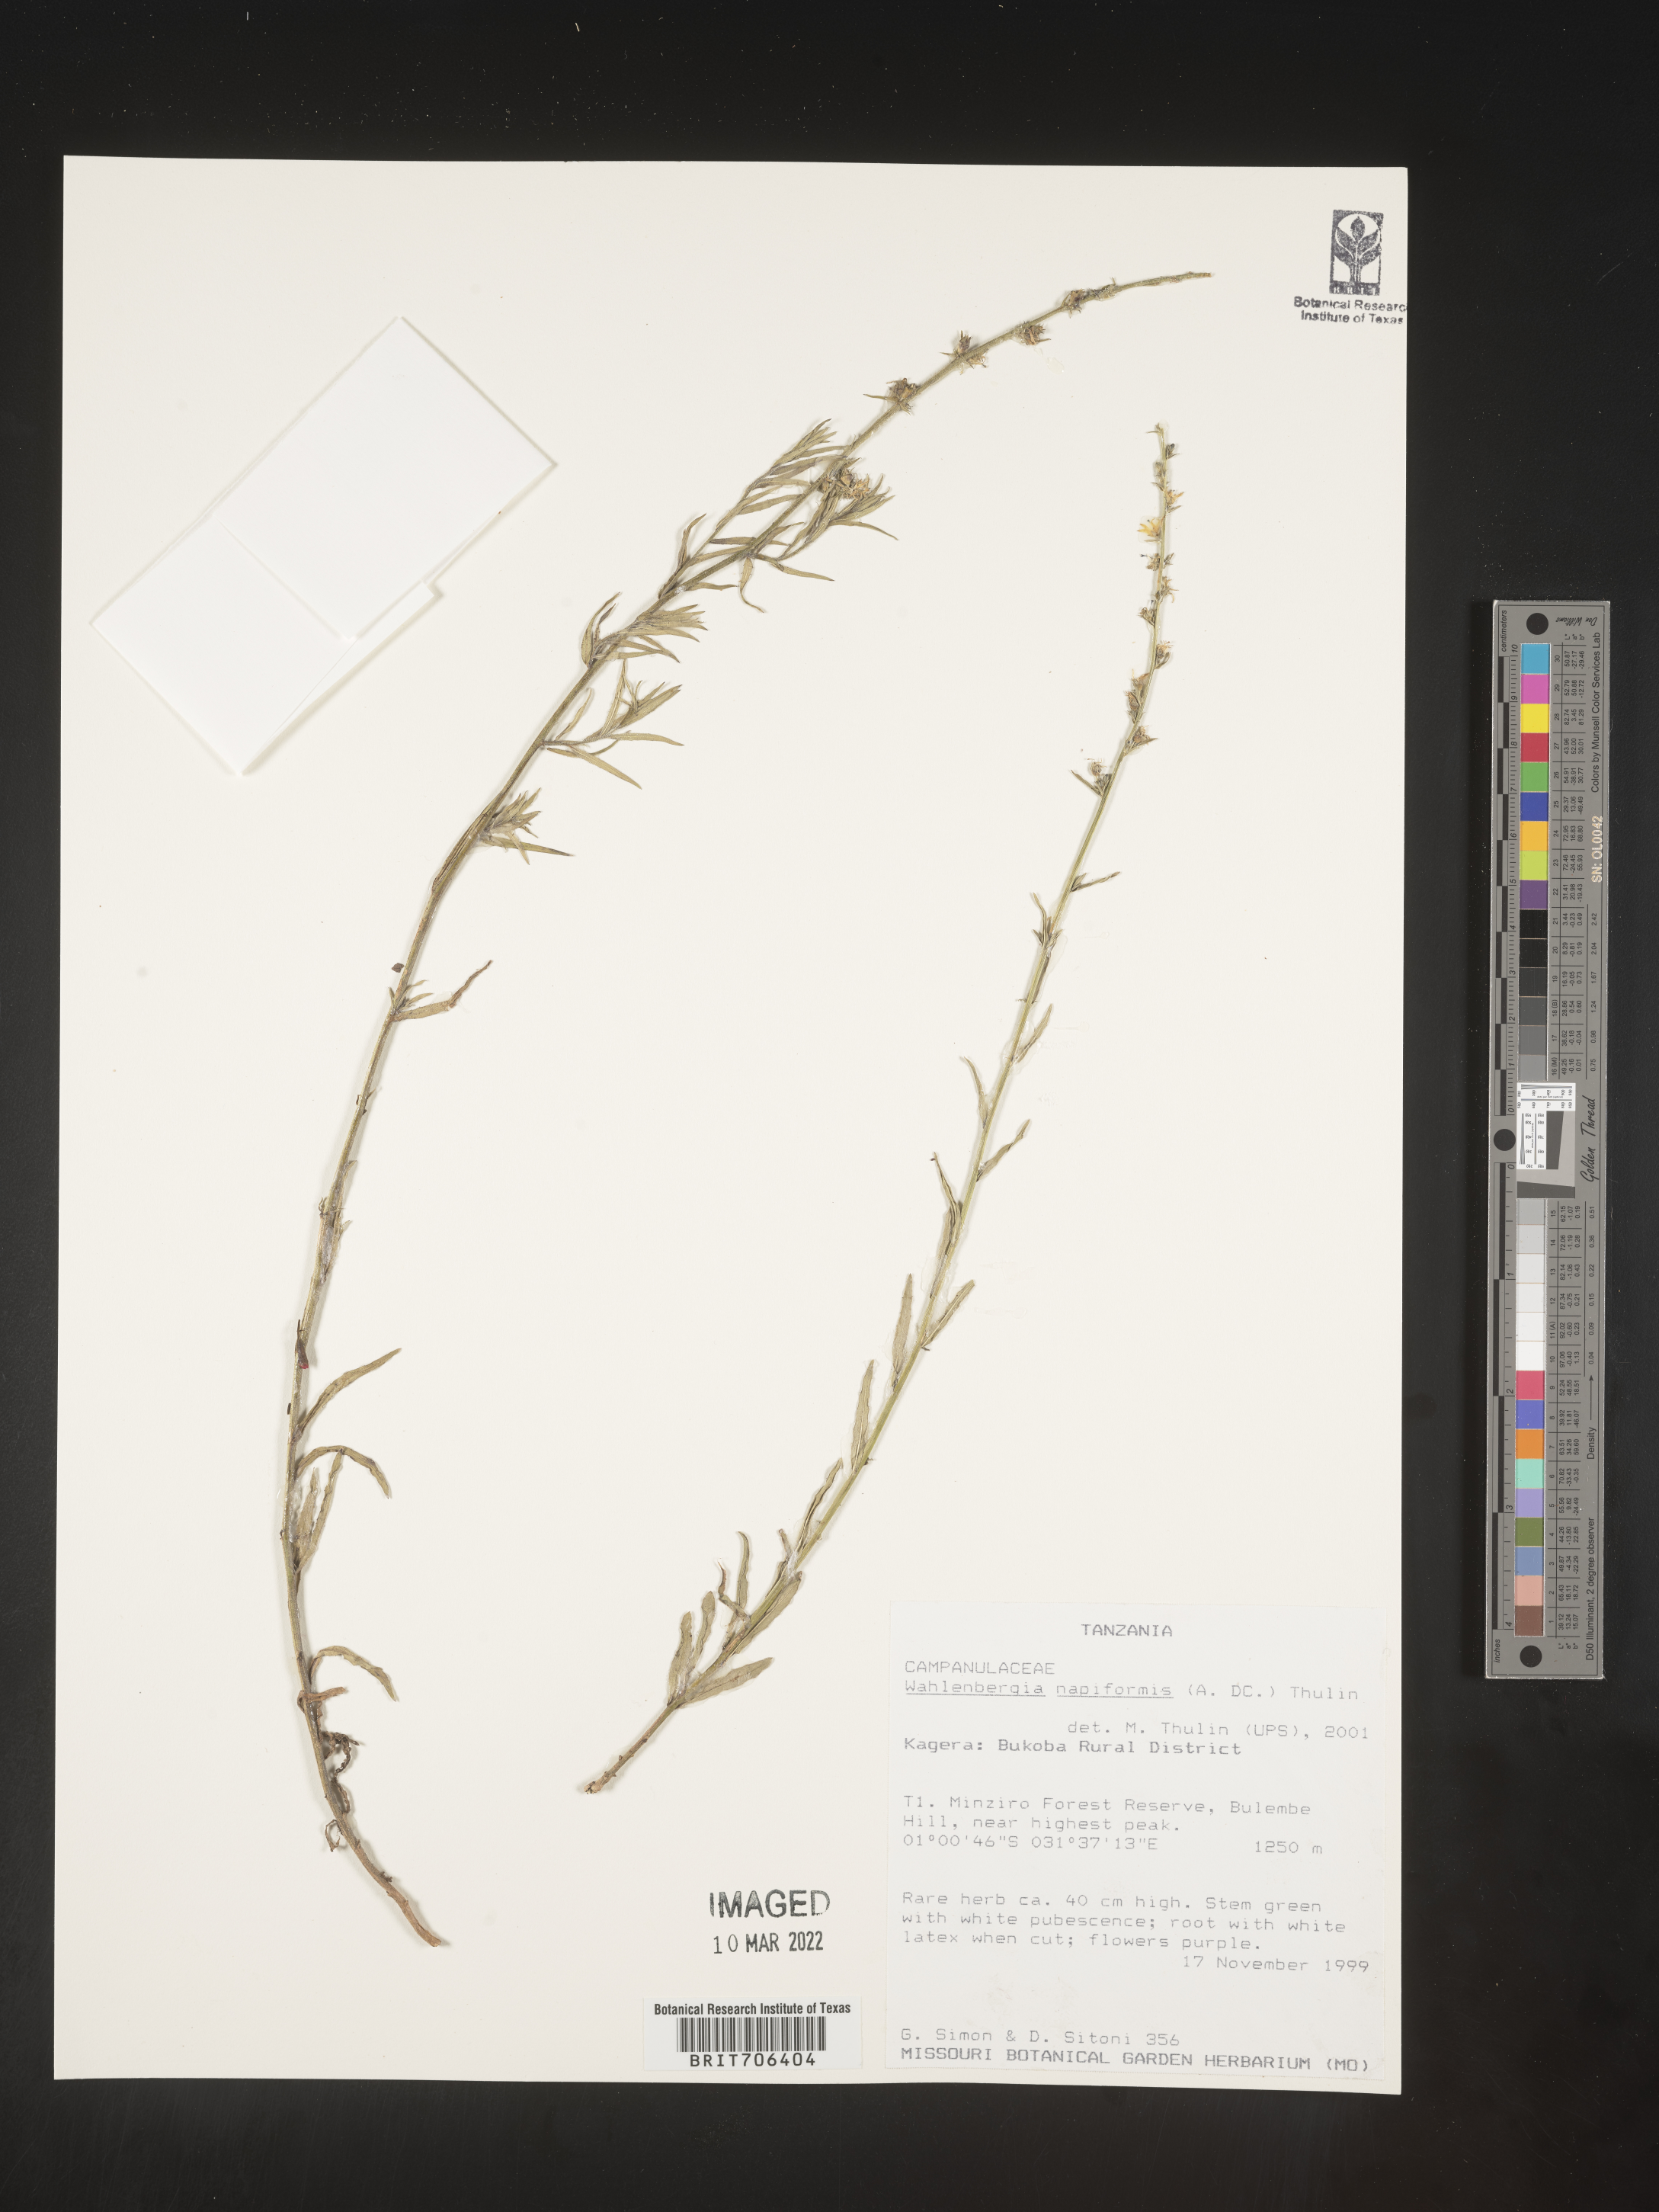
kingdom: Plantae
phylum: Tracheophyta
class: Magnoliopsida
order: Asterales
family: Campanulaceae
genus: Wahlenbergia
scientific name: Wahlenbergia
